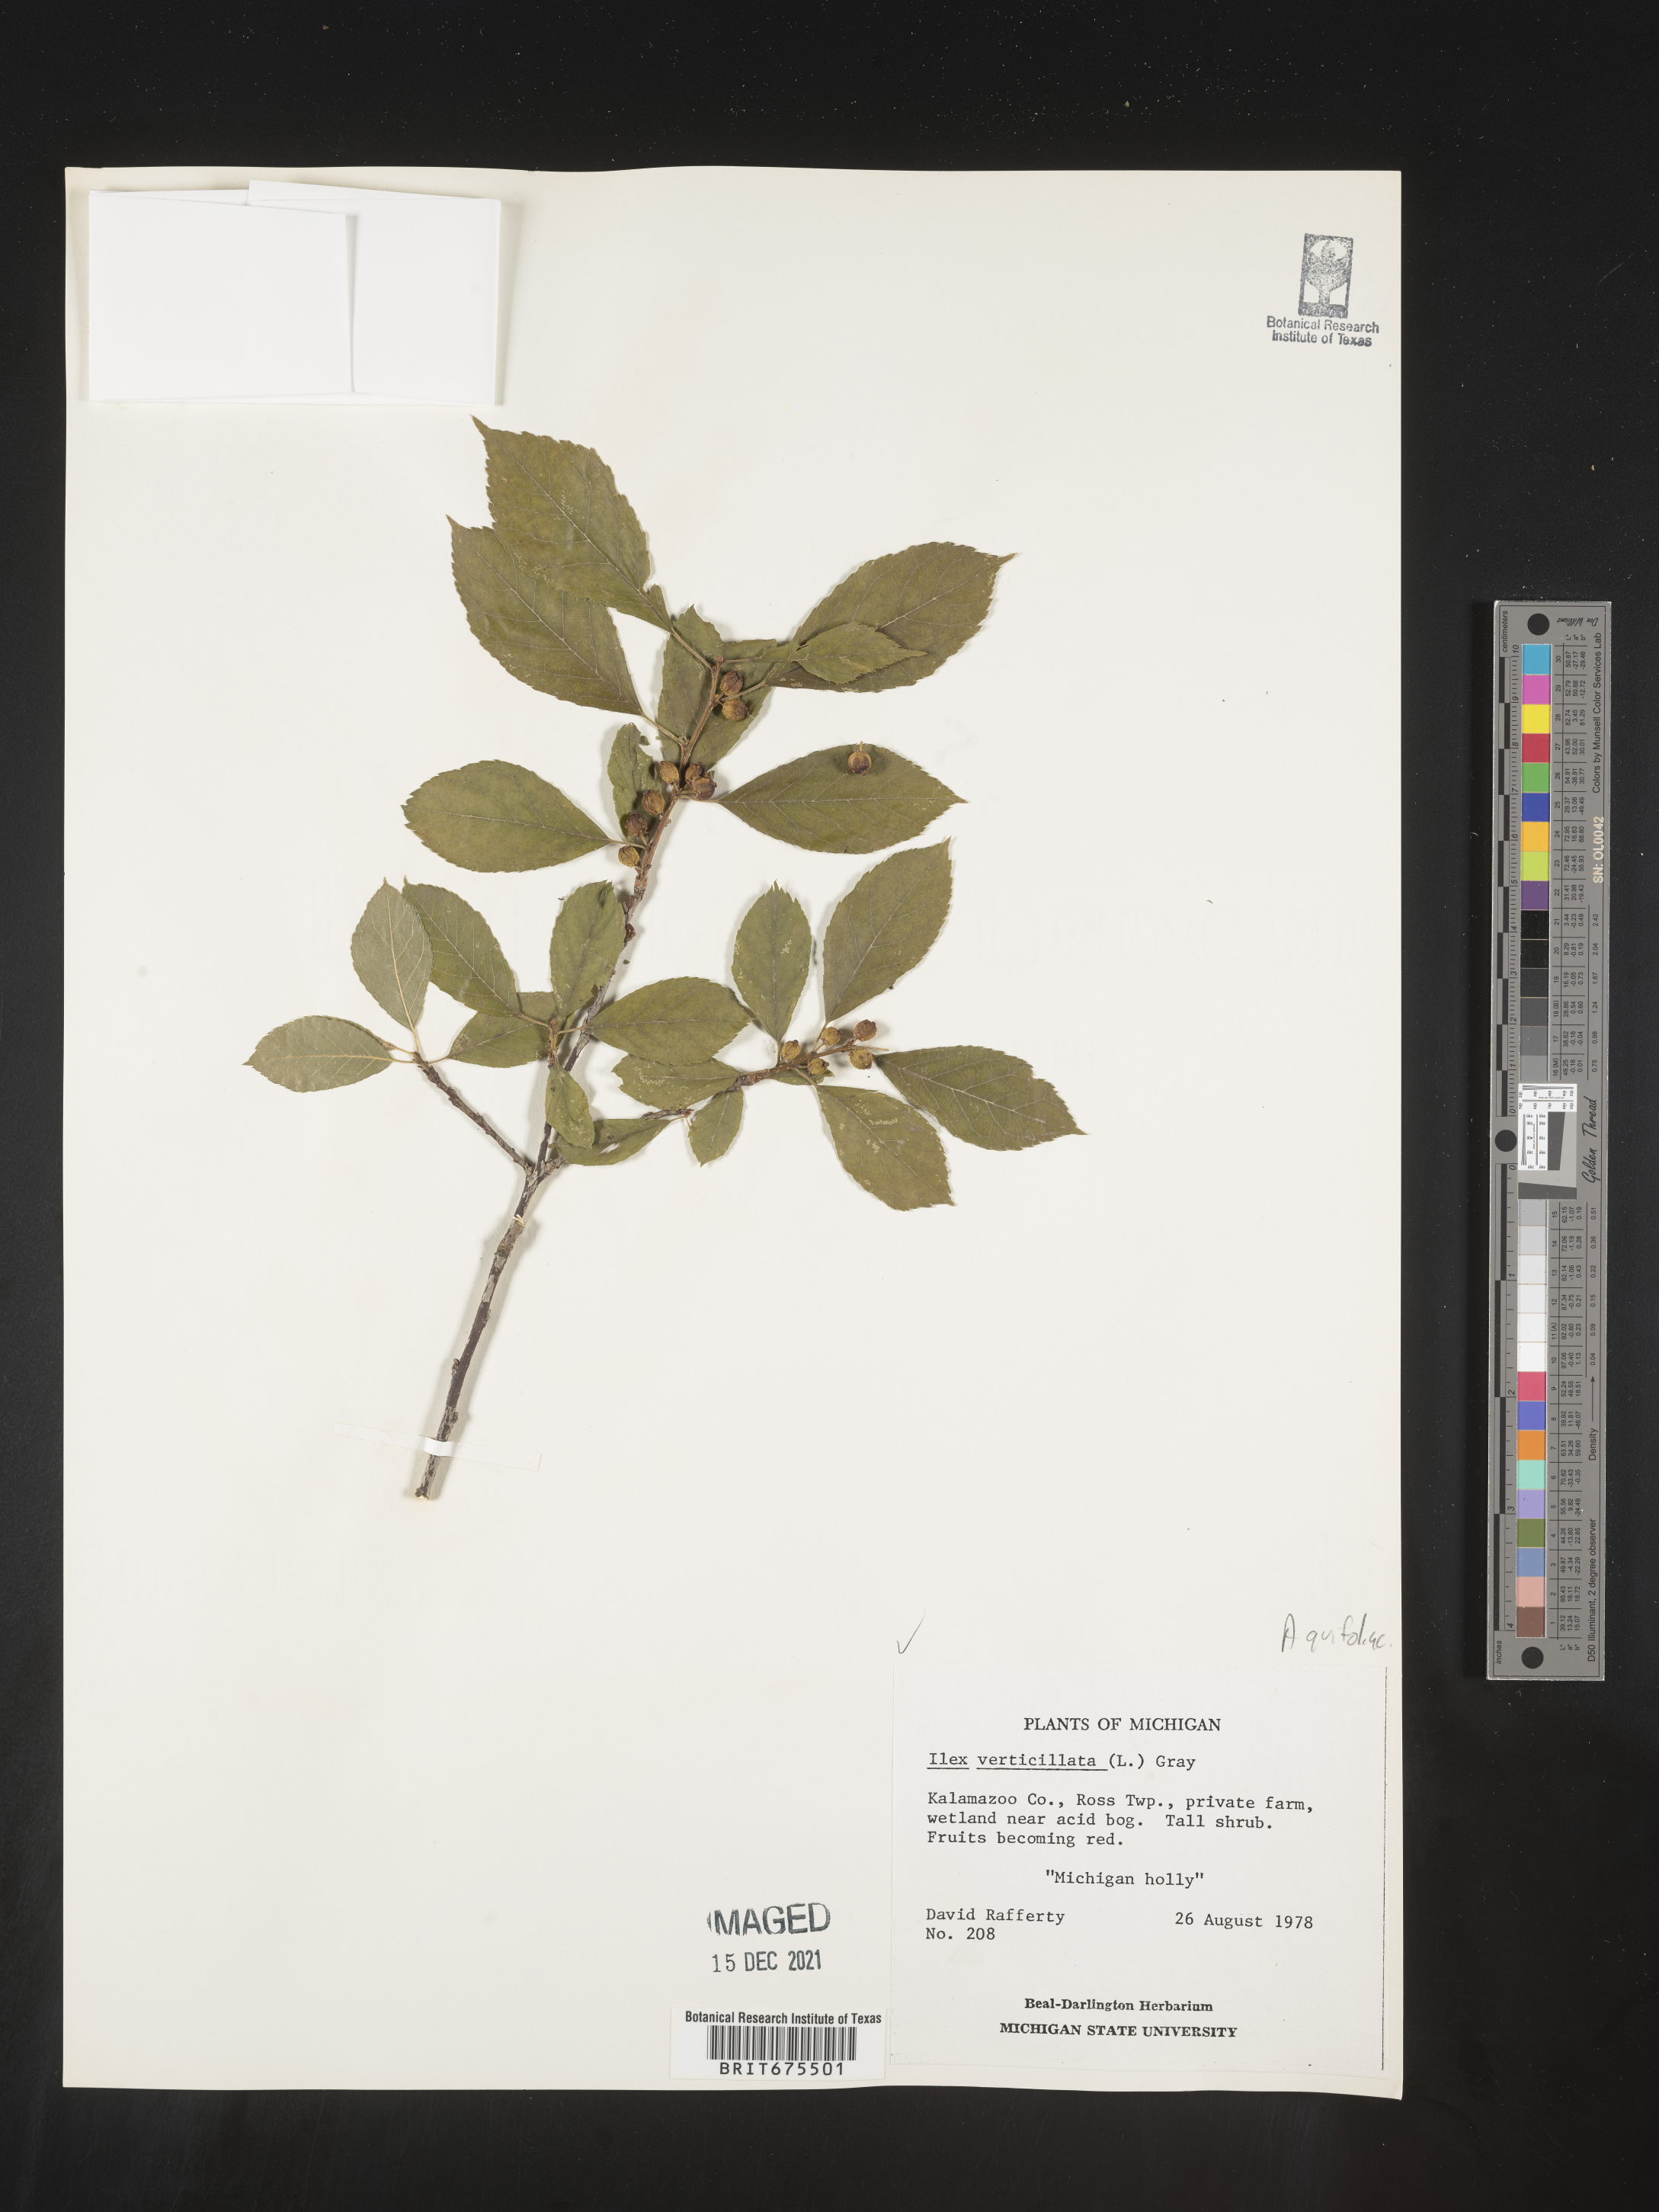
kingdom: Plantae
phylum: Tracheophyta
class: Magnoliopsida
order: Aquifoliales
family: Aquifoliaceae
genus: Ilex
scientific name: Ilex verticillata
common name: Virginia winterberry
